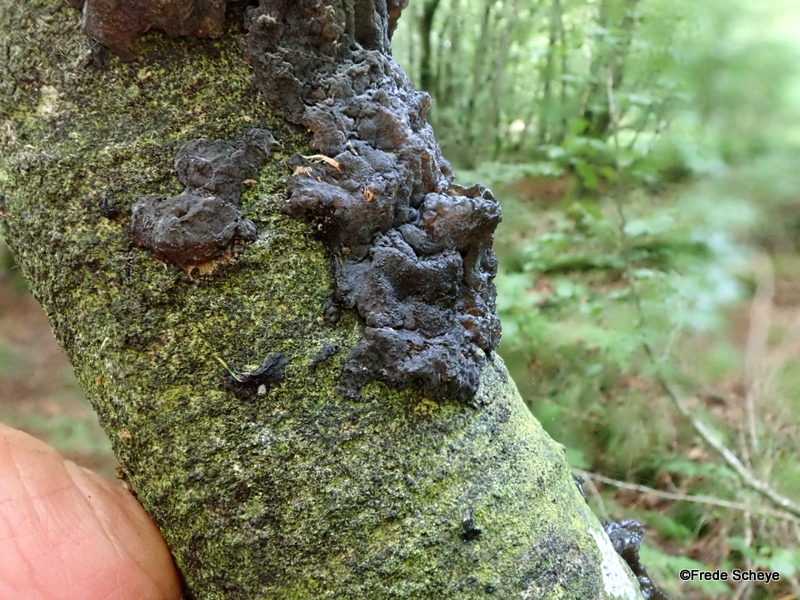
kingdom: Fungi
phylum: Basidiomycota
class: Agaricomycetes
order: Auriculariales
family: Auriculariaceae
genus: Exidia
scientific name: Exidia nigricans
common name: almindelig bævretop
